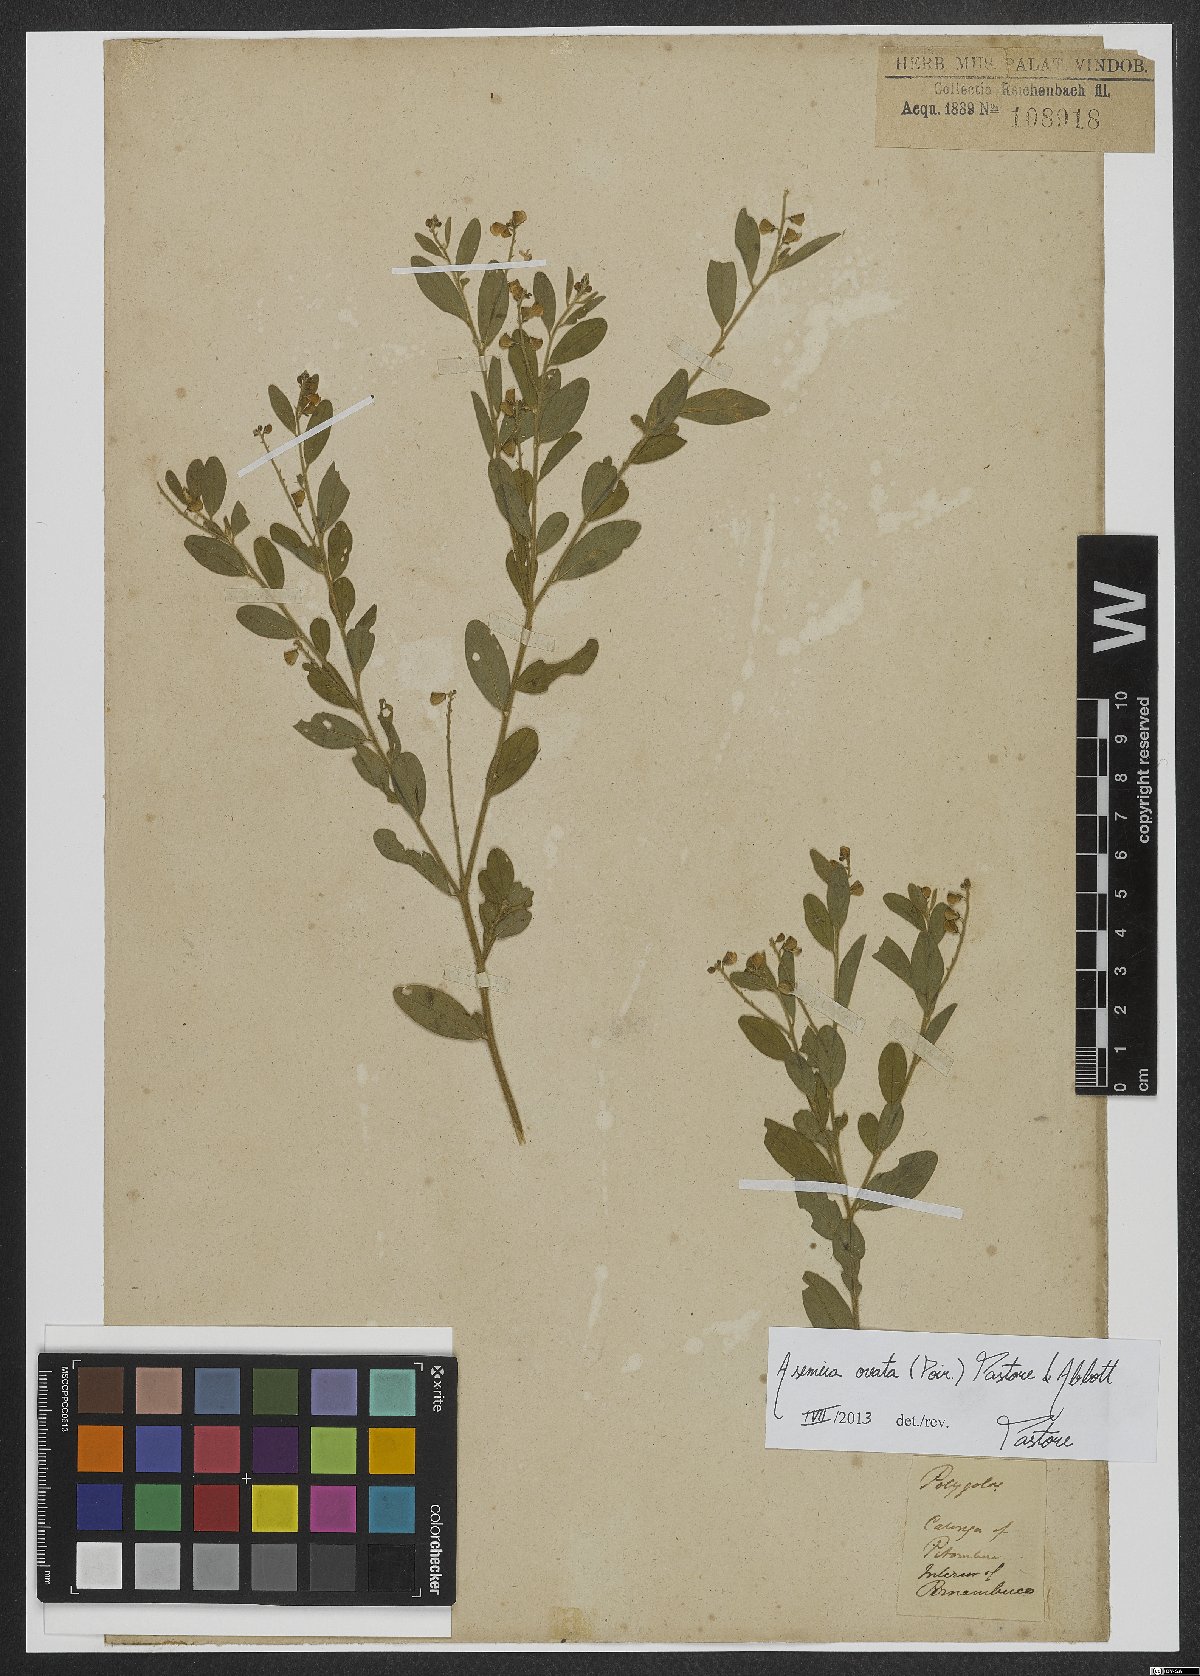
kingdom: Plantae
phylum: Tracheophyta
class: Magnoliopsida
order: Fabales
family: Polygalaceae
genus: Asemeia
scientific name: Asemeia ovata
